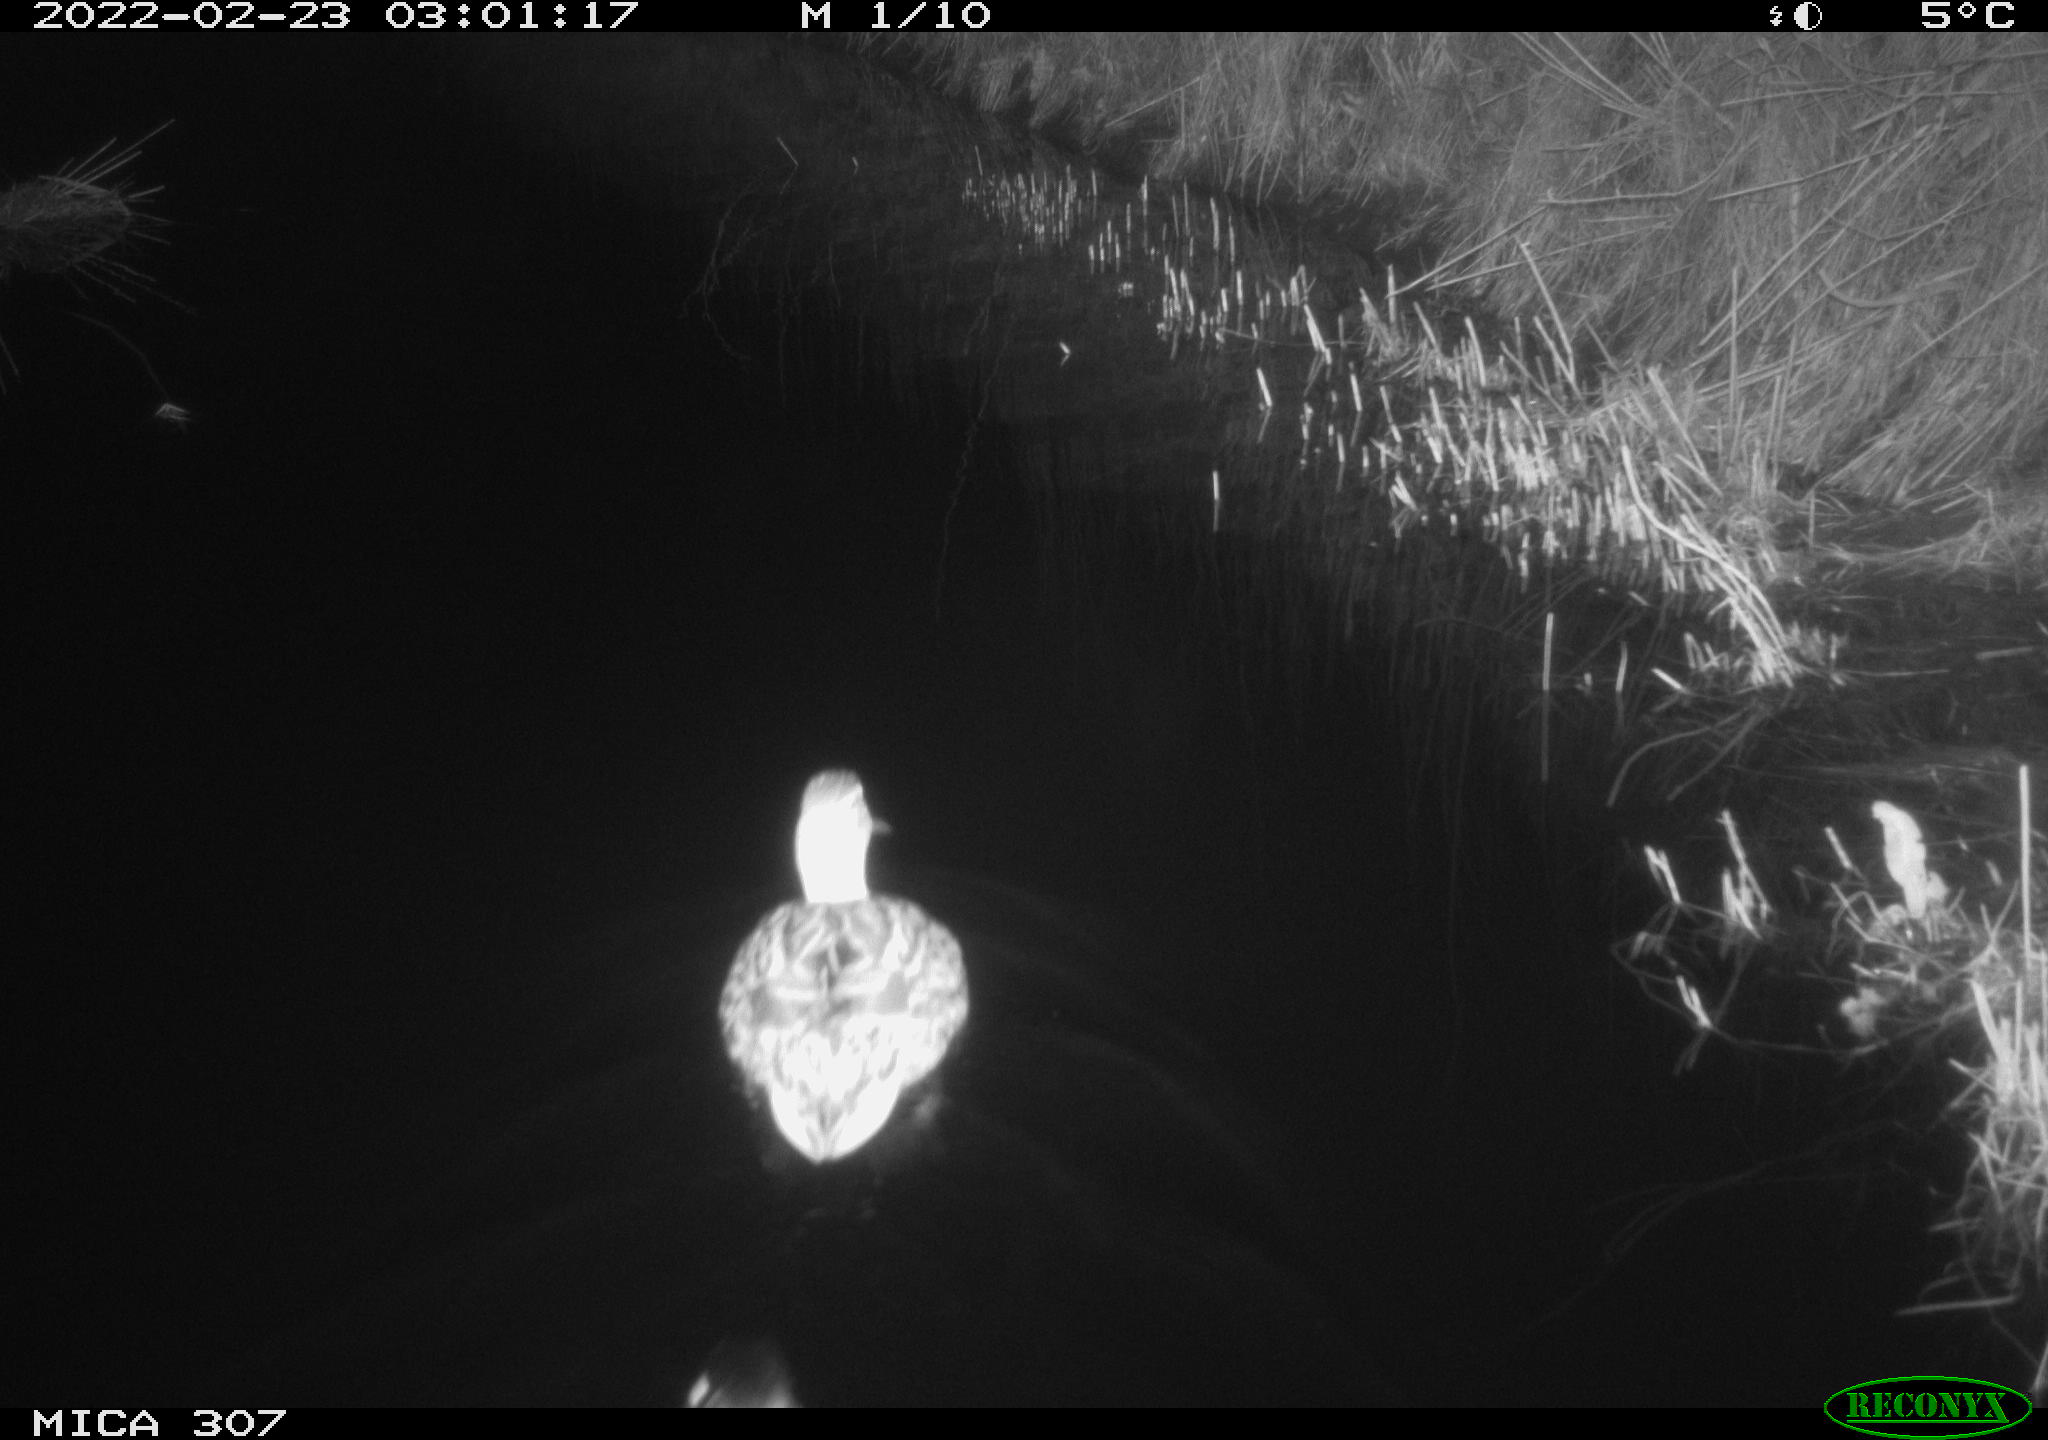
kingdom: Animalia
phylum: Chordata
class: Aves
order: Anseriformes
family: Anatidae
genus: Anas
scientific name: Anas platyrhynchos
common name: Mallard
